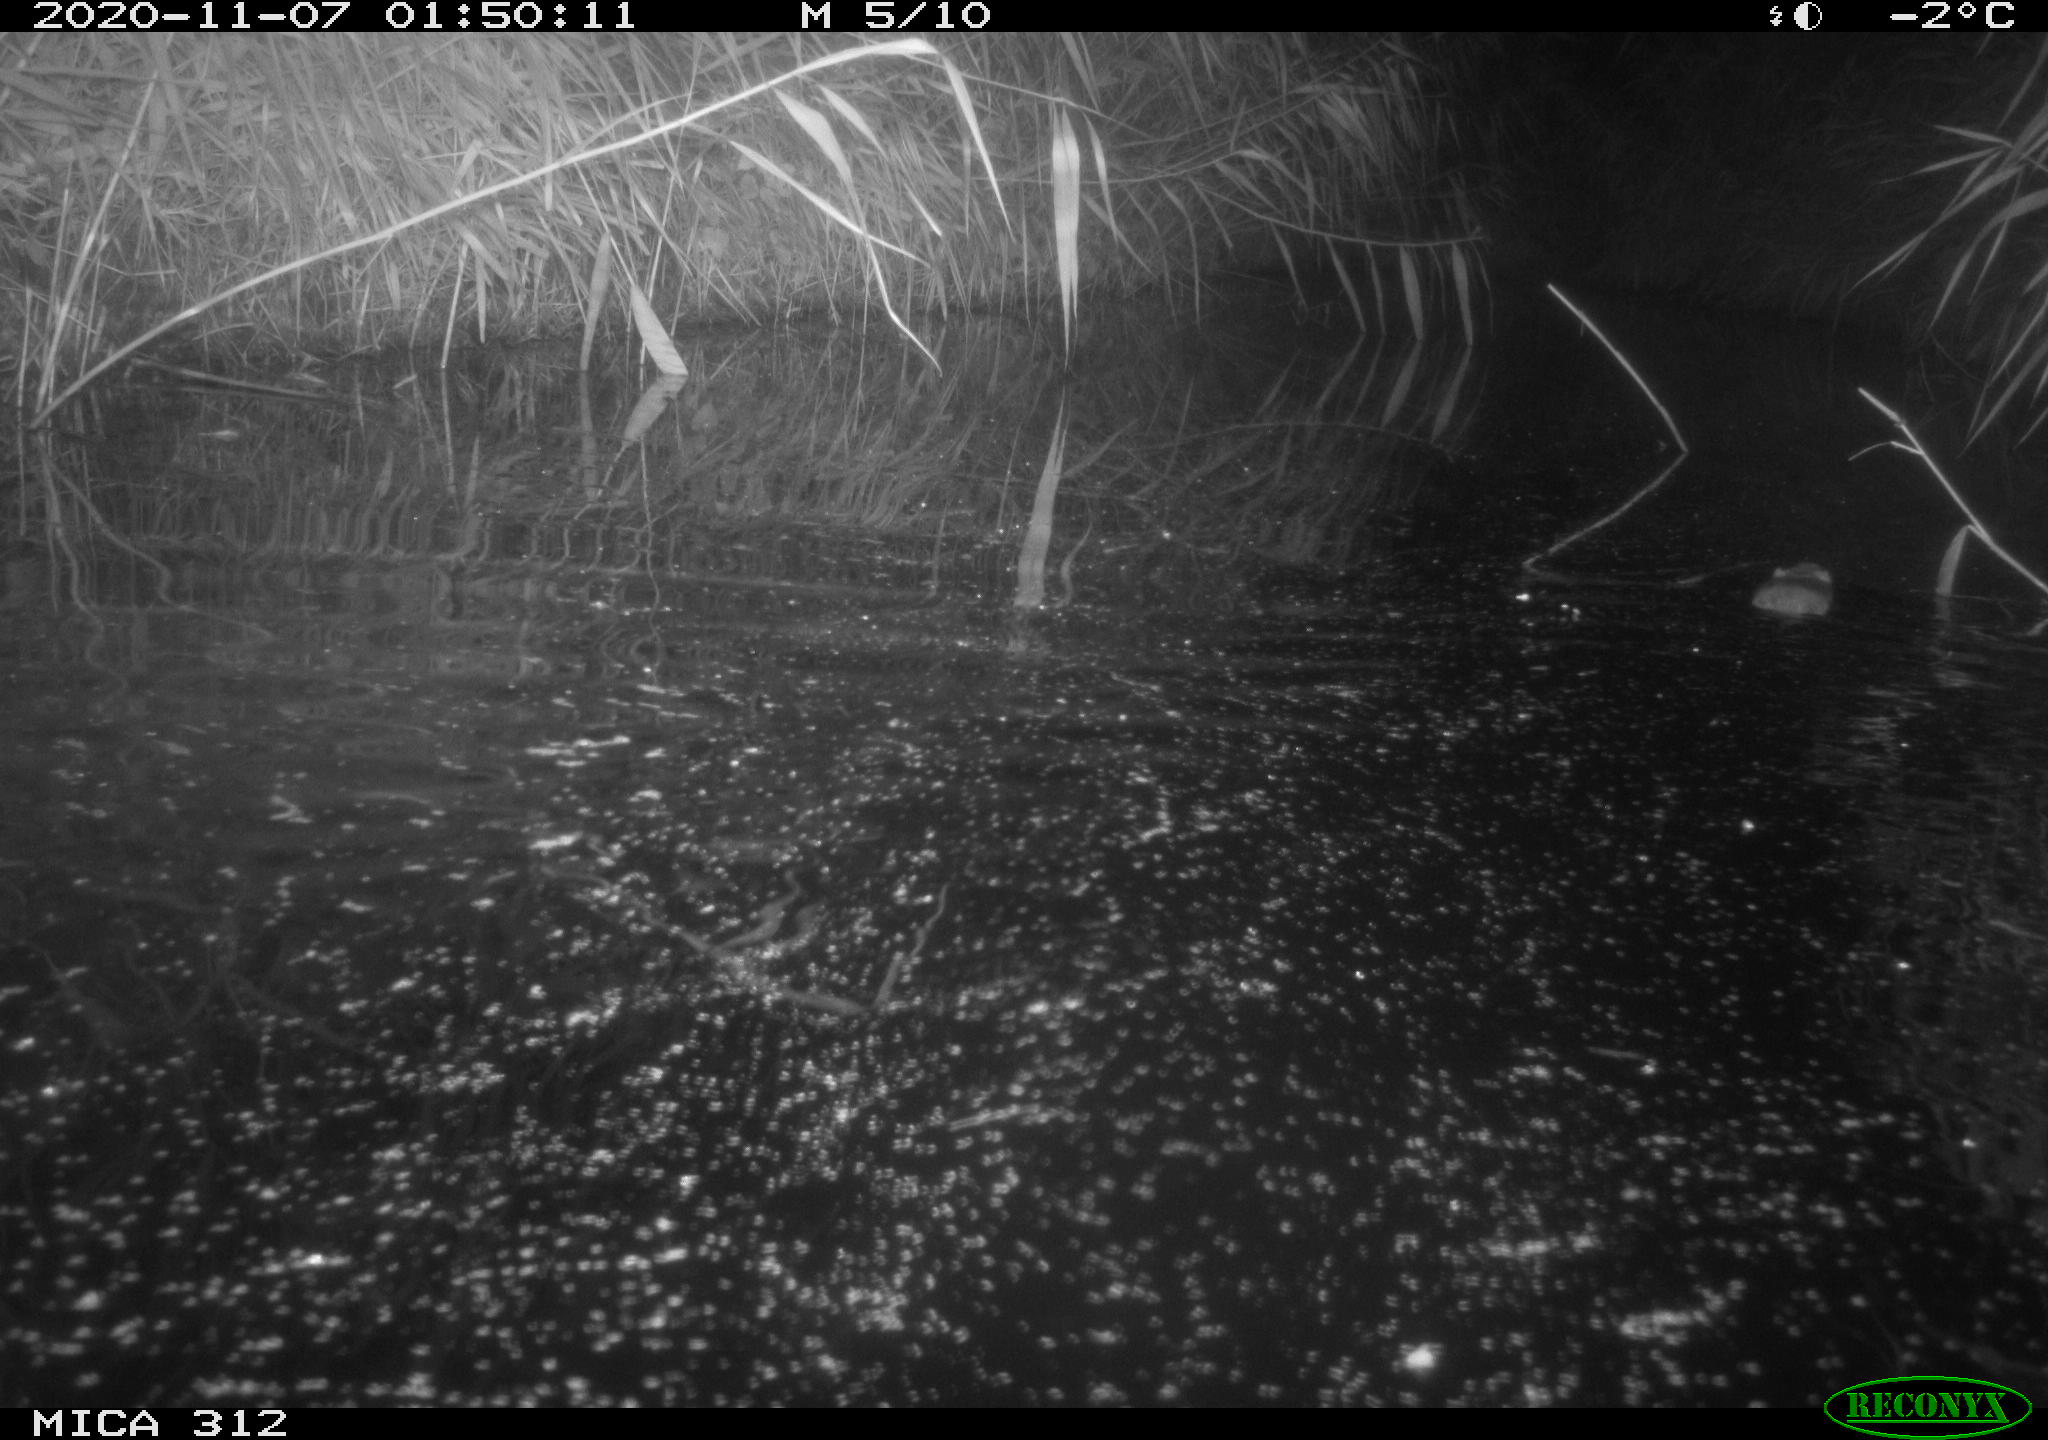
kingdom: Animalia
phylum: Chordata
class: Mammalia
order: Rodentia
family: Muridae
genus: Rattus
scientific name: Rattus norvegicus
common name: Brown rat
